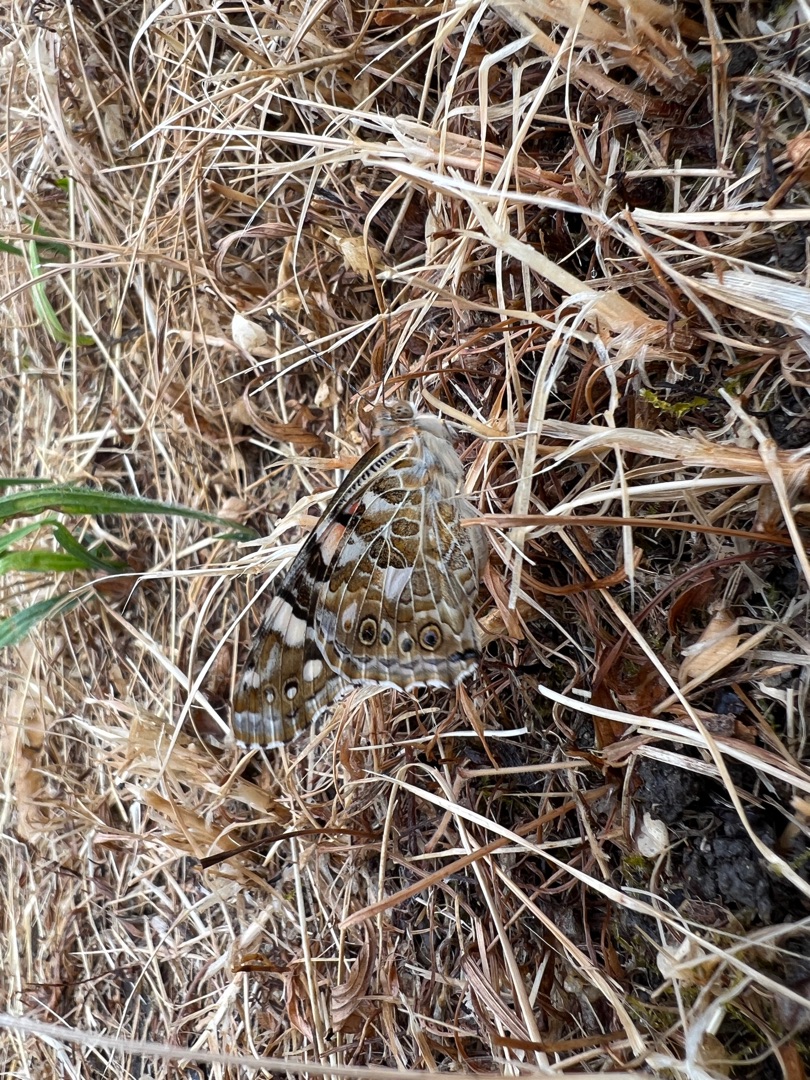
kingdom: Animalia
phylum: Arthropoda
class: Insecta
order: Lepidoptera
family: Nymphalidae
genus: Vanessa
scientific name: Vanessa cardui
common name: Tidselsommerfugl
